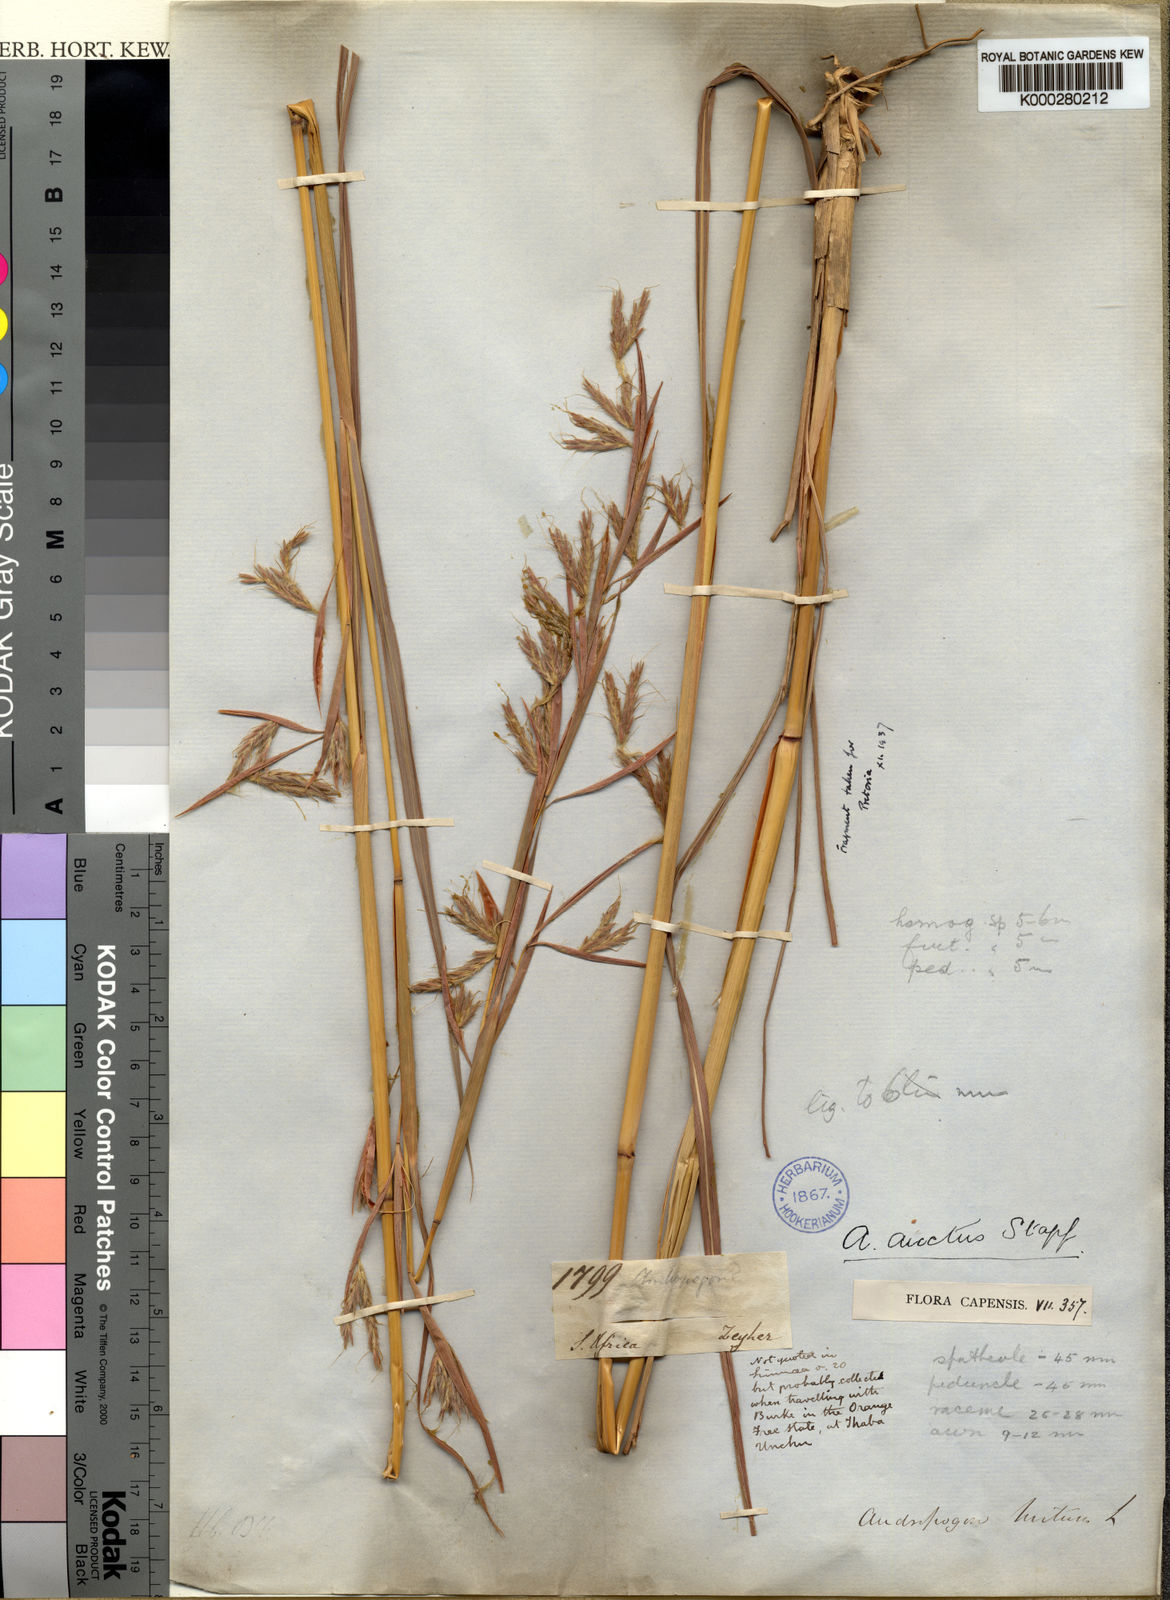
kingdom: Plantae
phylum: Tracheophyta
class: Liliopsida
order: Poales
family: Poaceae
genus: Hyparrhenia
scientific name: Hyparrhenia dregeana
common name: Silky thatching grass
